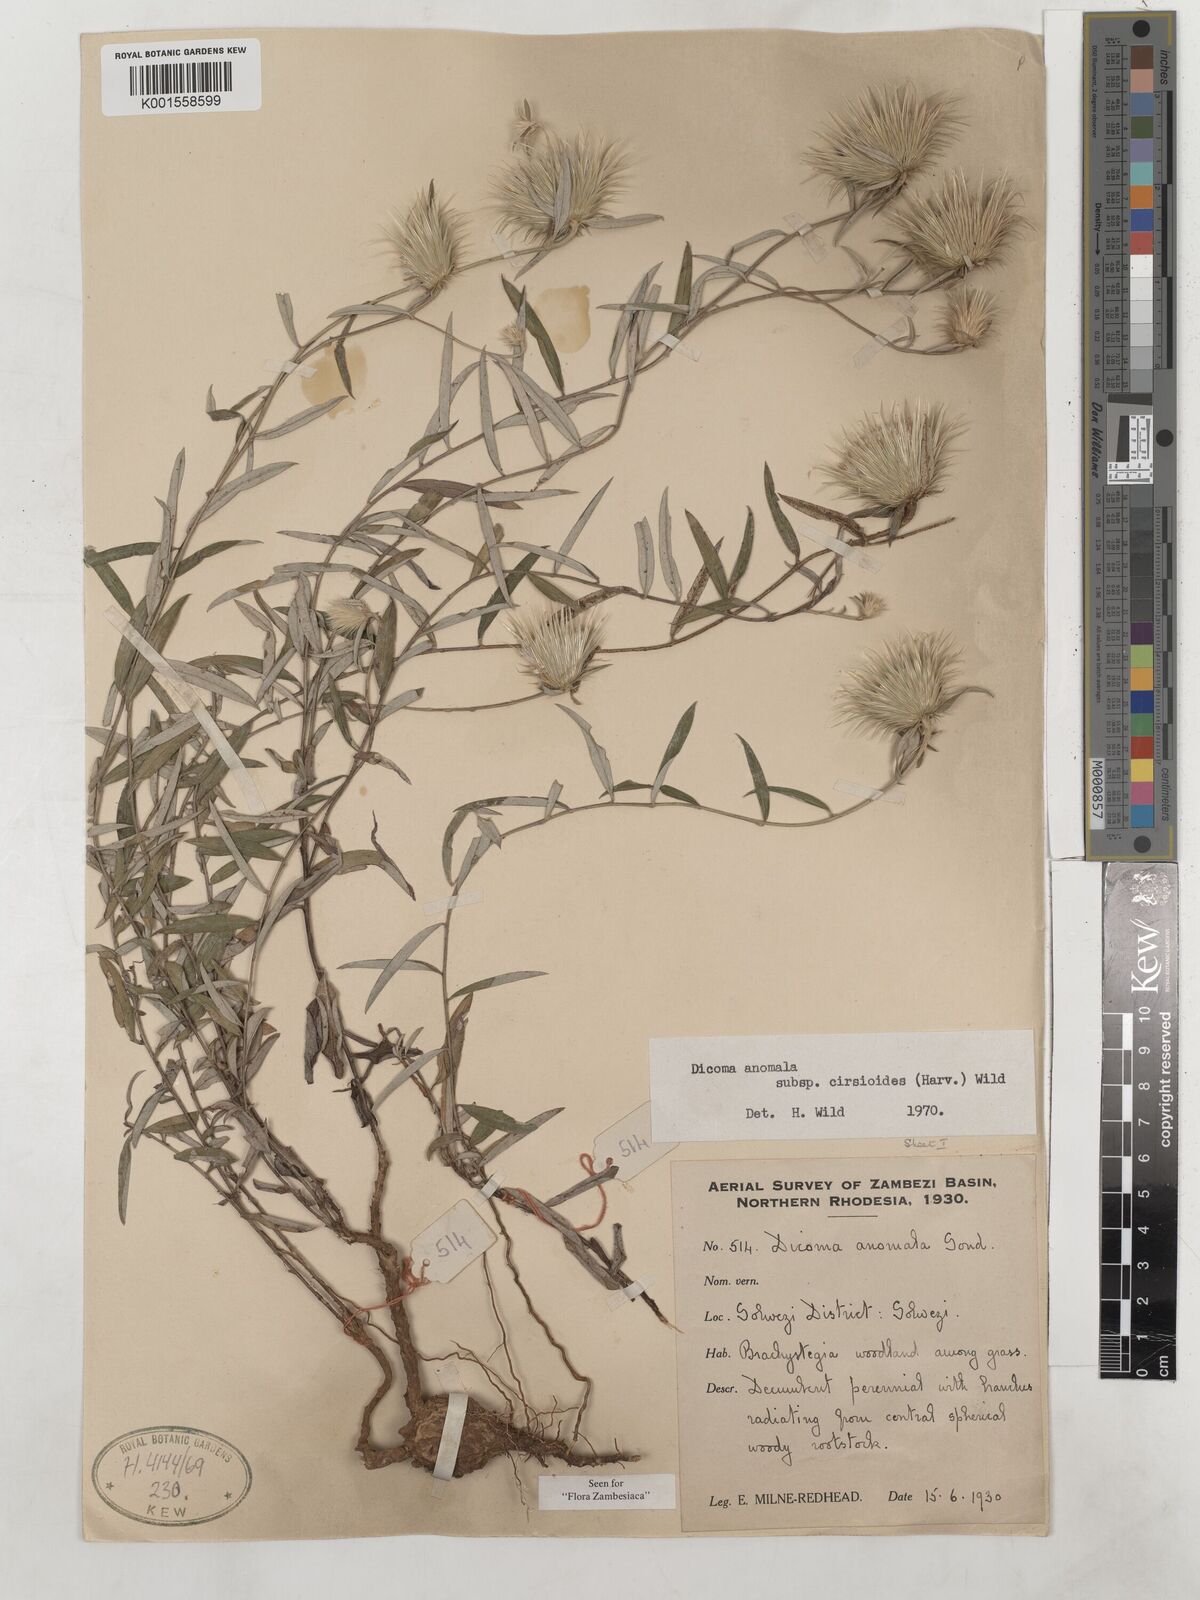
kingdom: Plantae
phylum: Tracheophyta
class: Magnoliopsida
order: Asterales
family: Asteraceae
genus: Dicoma
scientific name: Dicoma anomala
